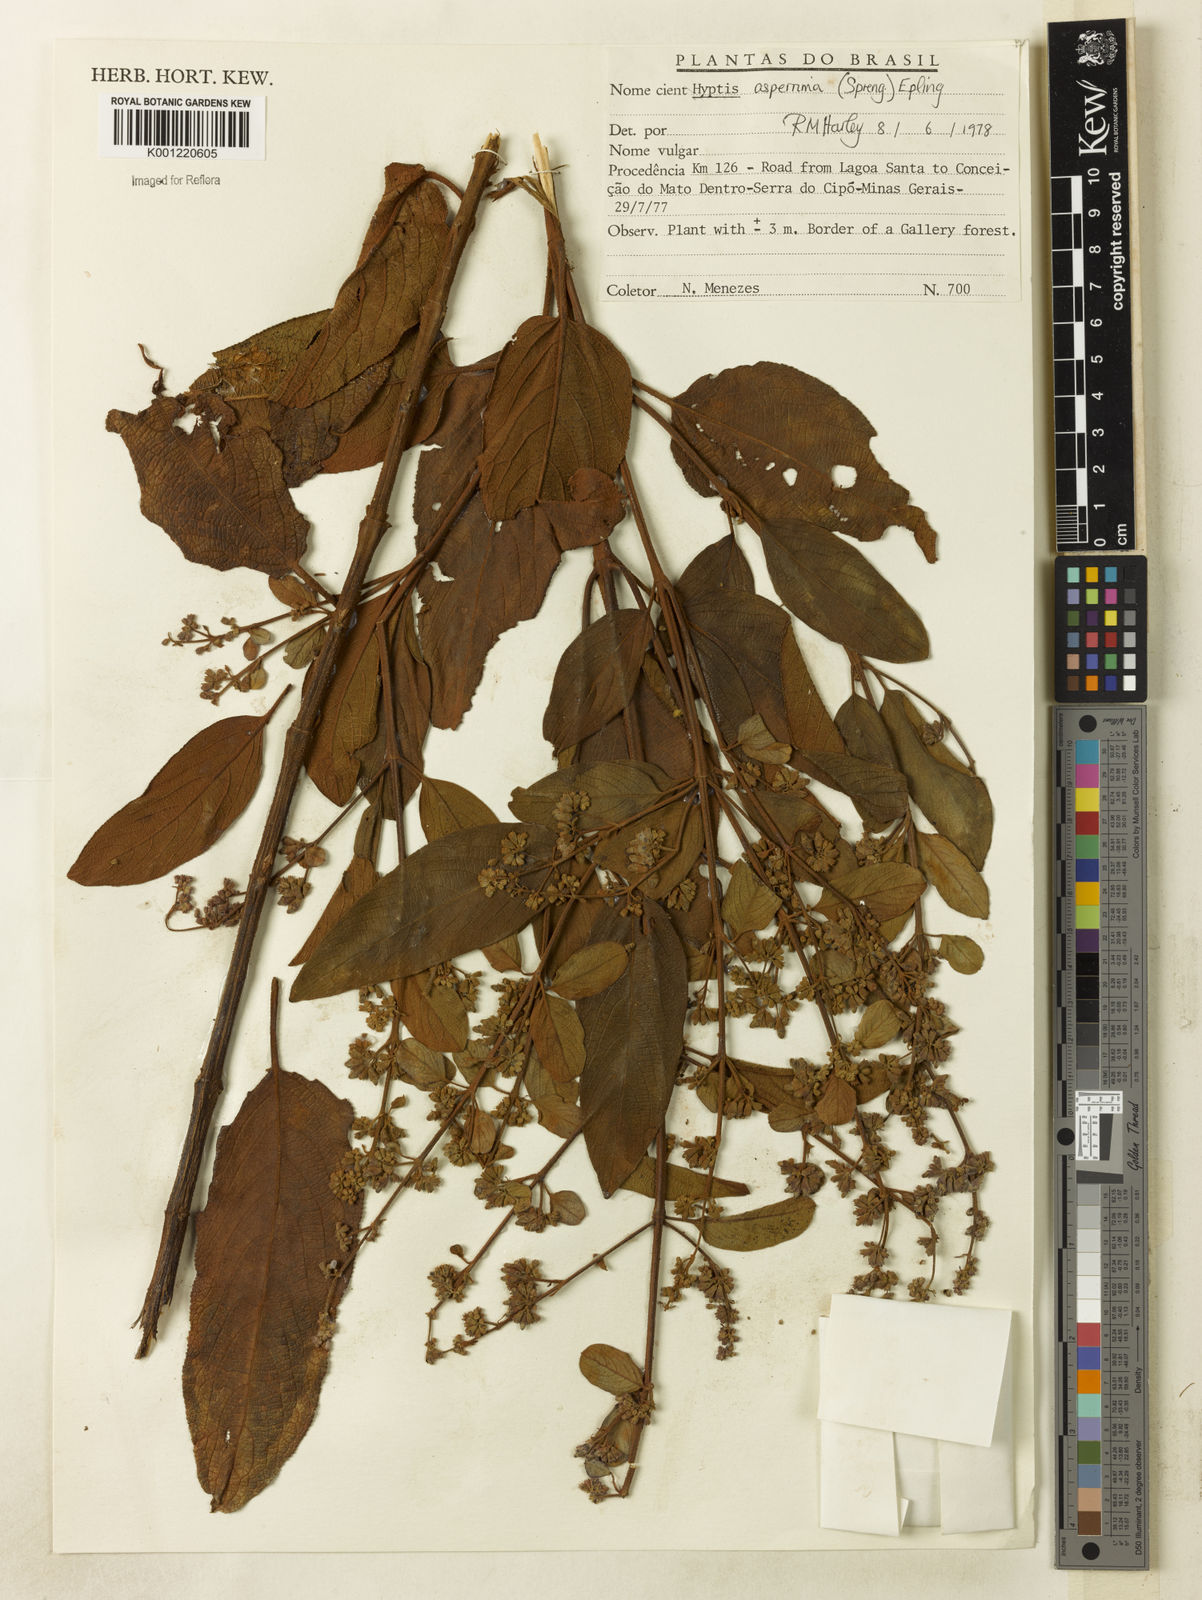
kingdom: Plantae
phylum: Tracheophyta
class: Magnoliopsida
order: Lamiales
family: Lamiaceae
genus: Hyptidendron
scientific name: Hyptidendron asperrimum
